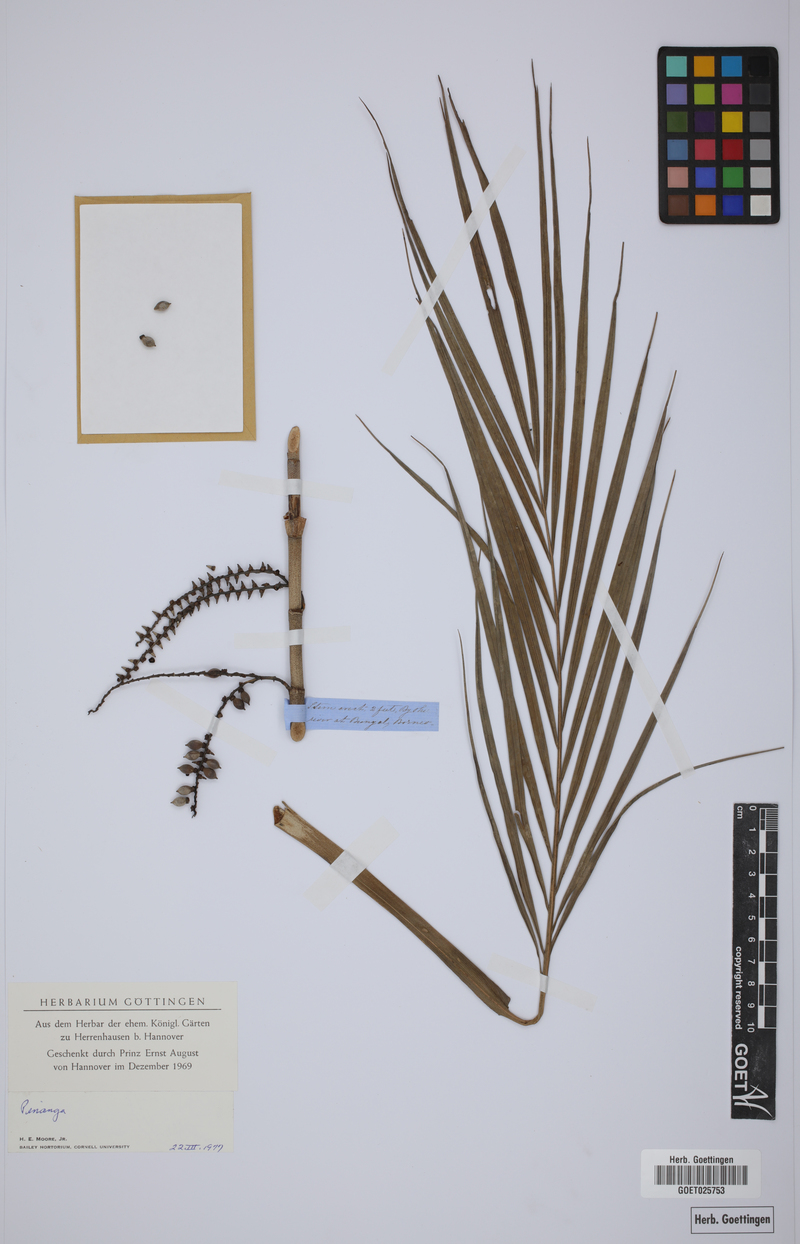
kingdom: Plantae
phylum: Tracheophyta
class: Liliopsida
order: Arecales
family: Arecaceae
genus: Pinanga
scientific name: Pinanga
